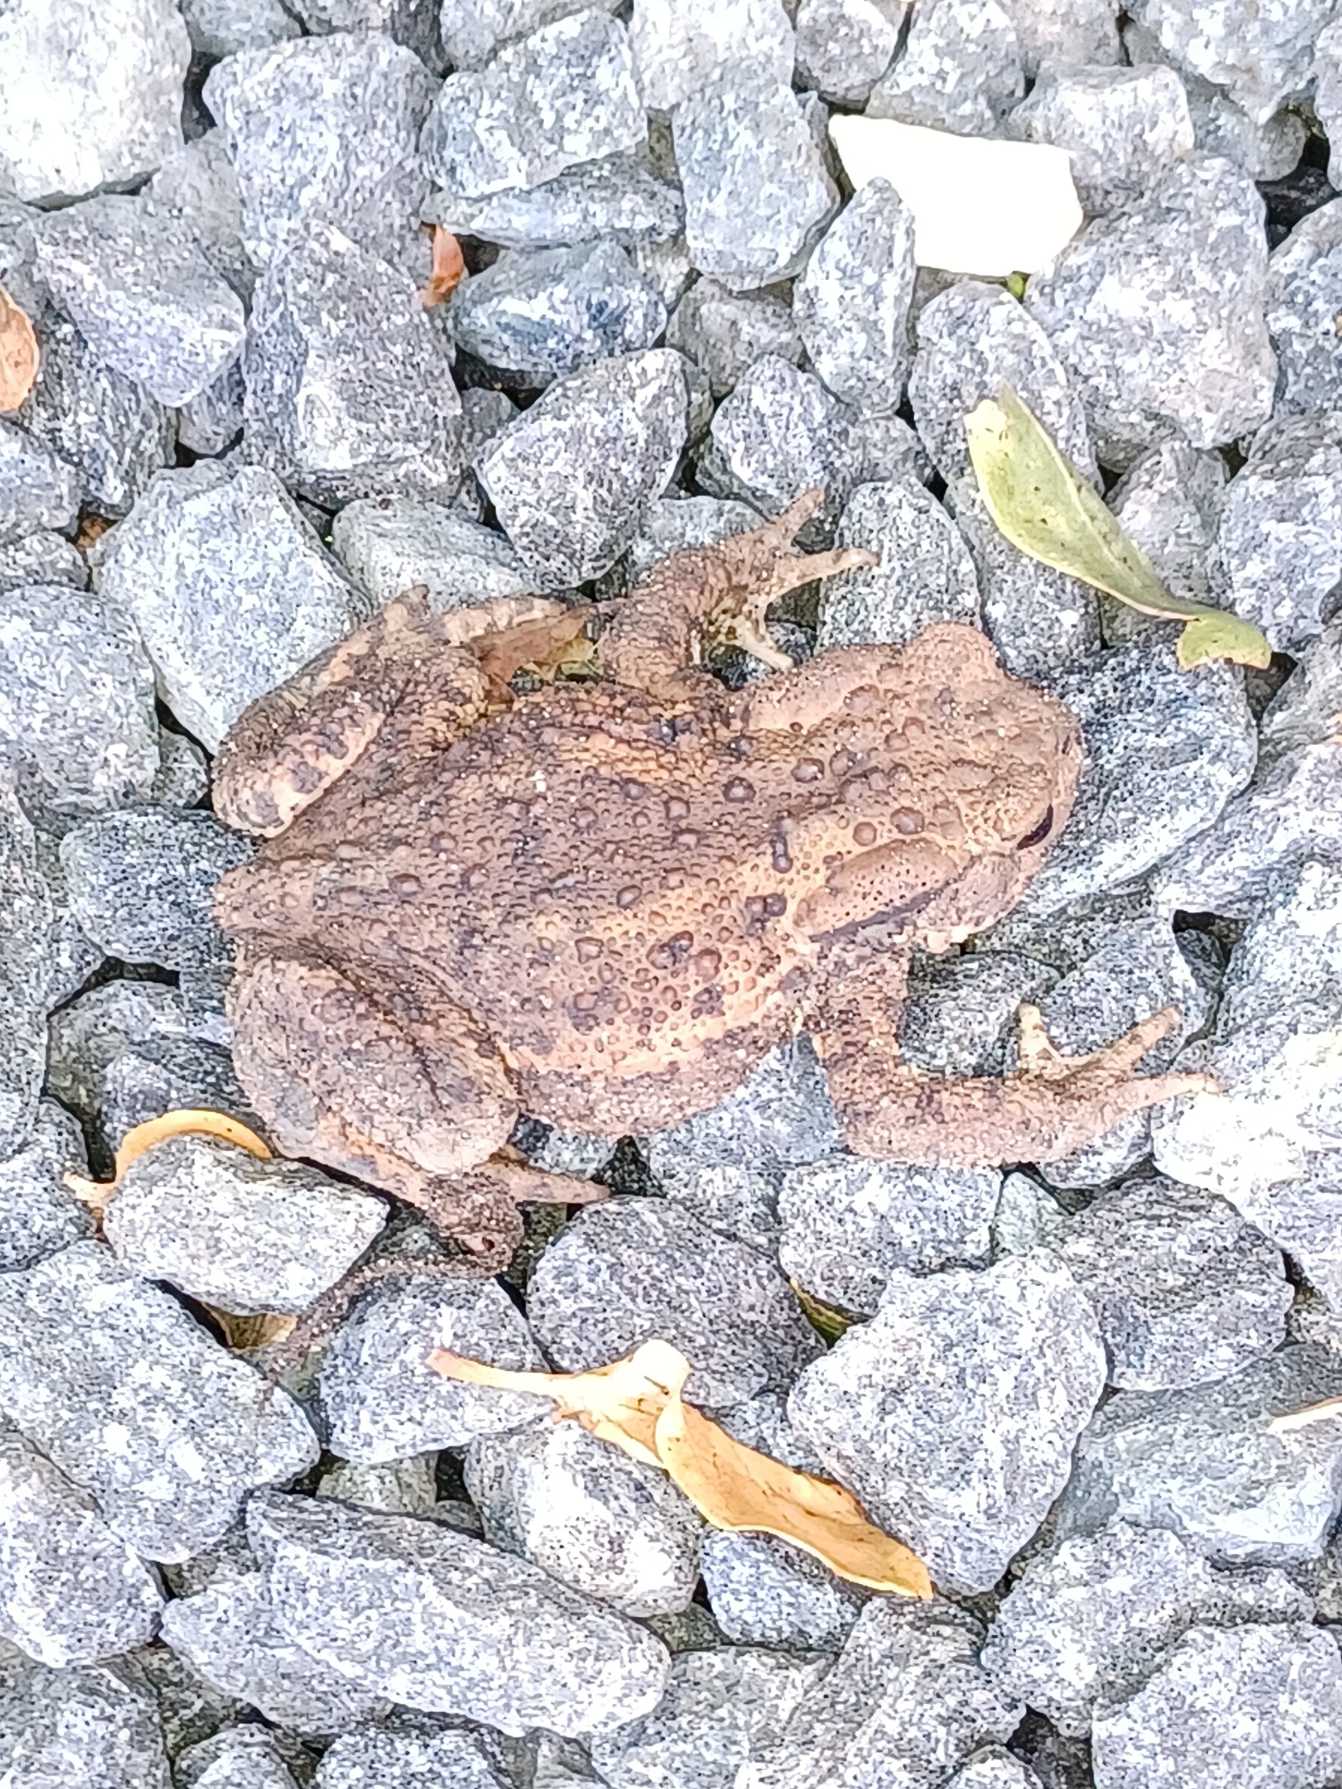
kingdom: Animalia
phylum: Chordata
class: Amphibia
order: Anura
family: Bufonidae
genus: Bufo
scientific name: Bufo bufo
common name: Skrubtudse
